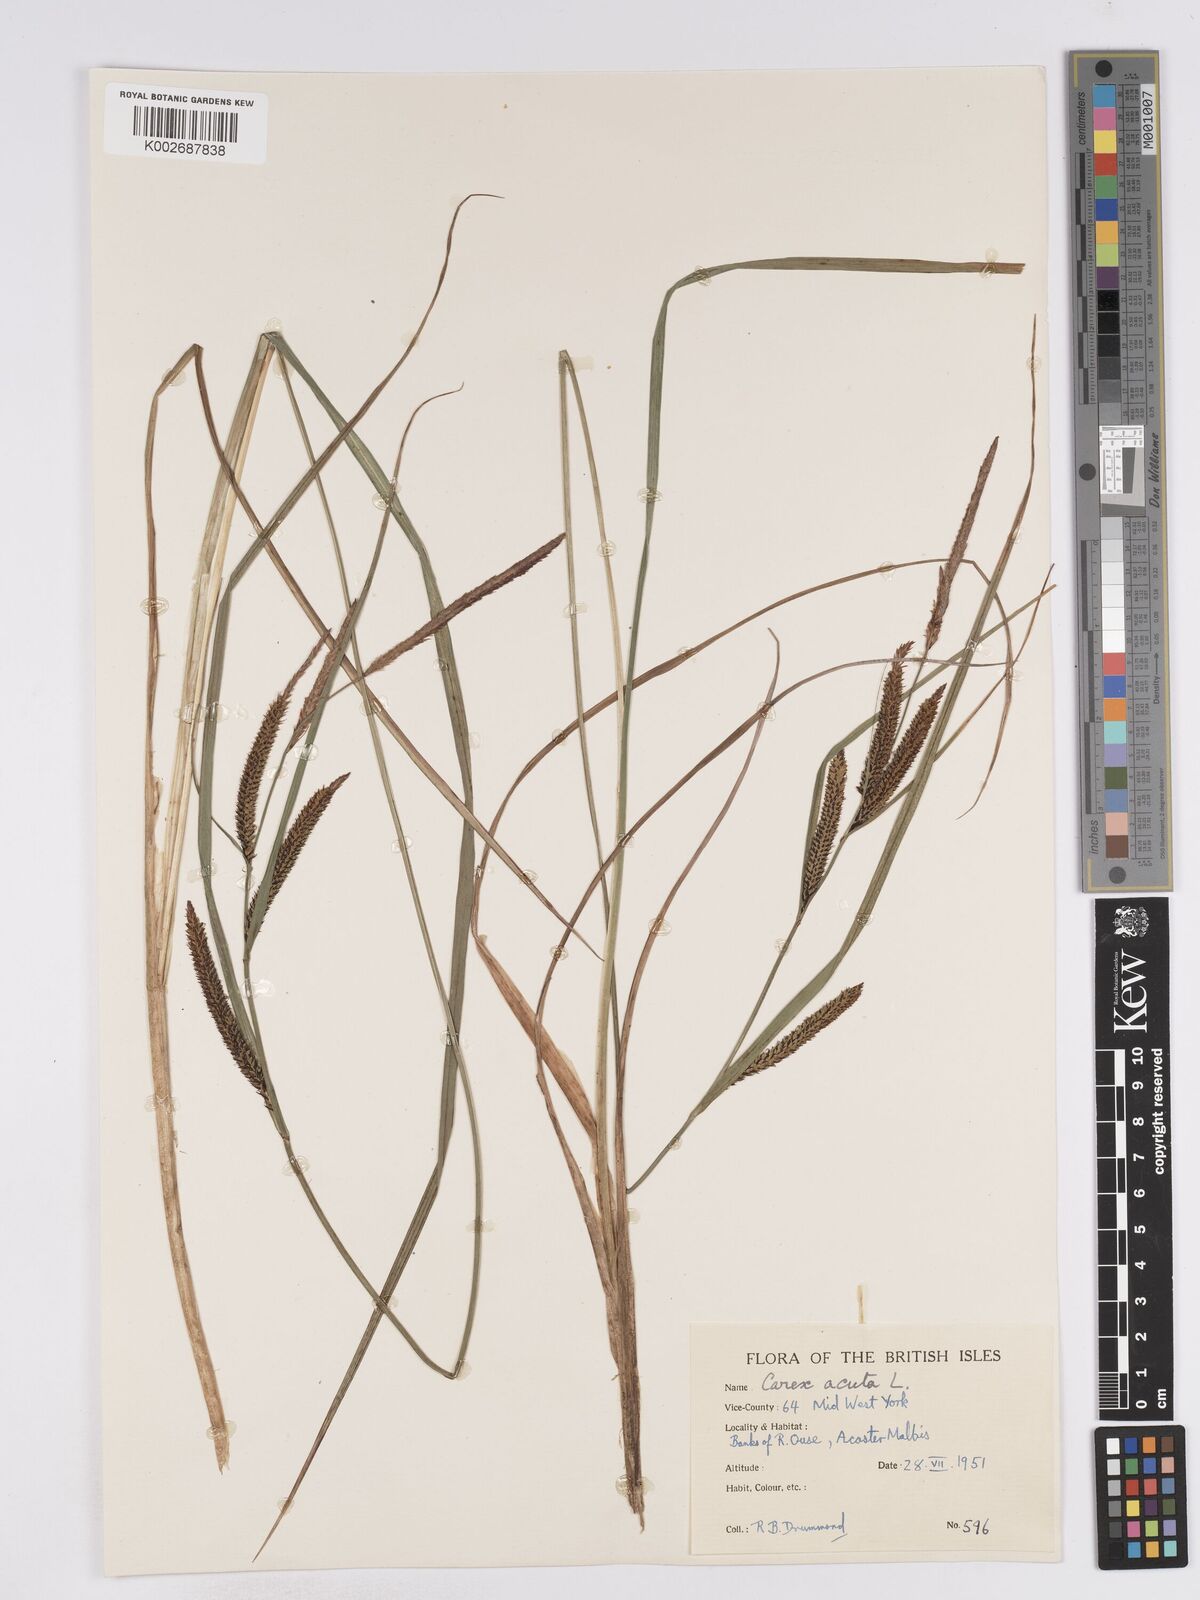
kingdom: Plantae
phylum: Tracheophyta
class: Liliopsida
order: Poales
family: Cyperaceae
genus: Carex
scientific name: Carex acuta
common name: Slender tufted-sedge
